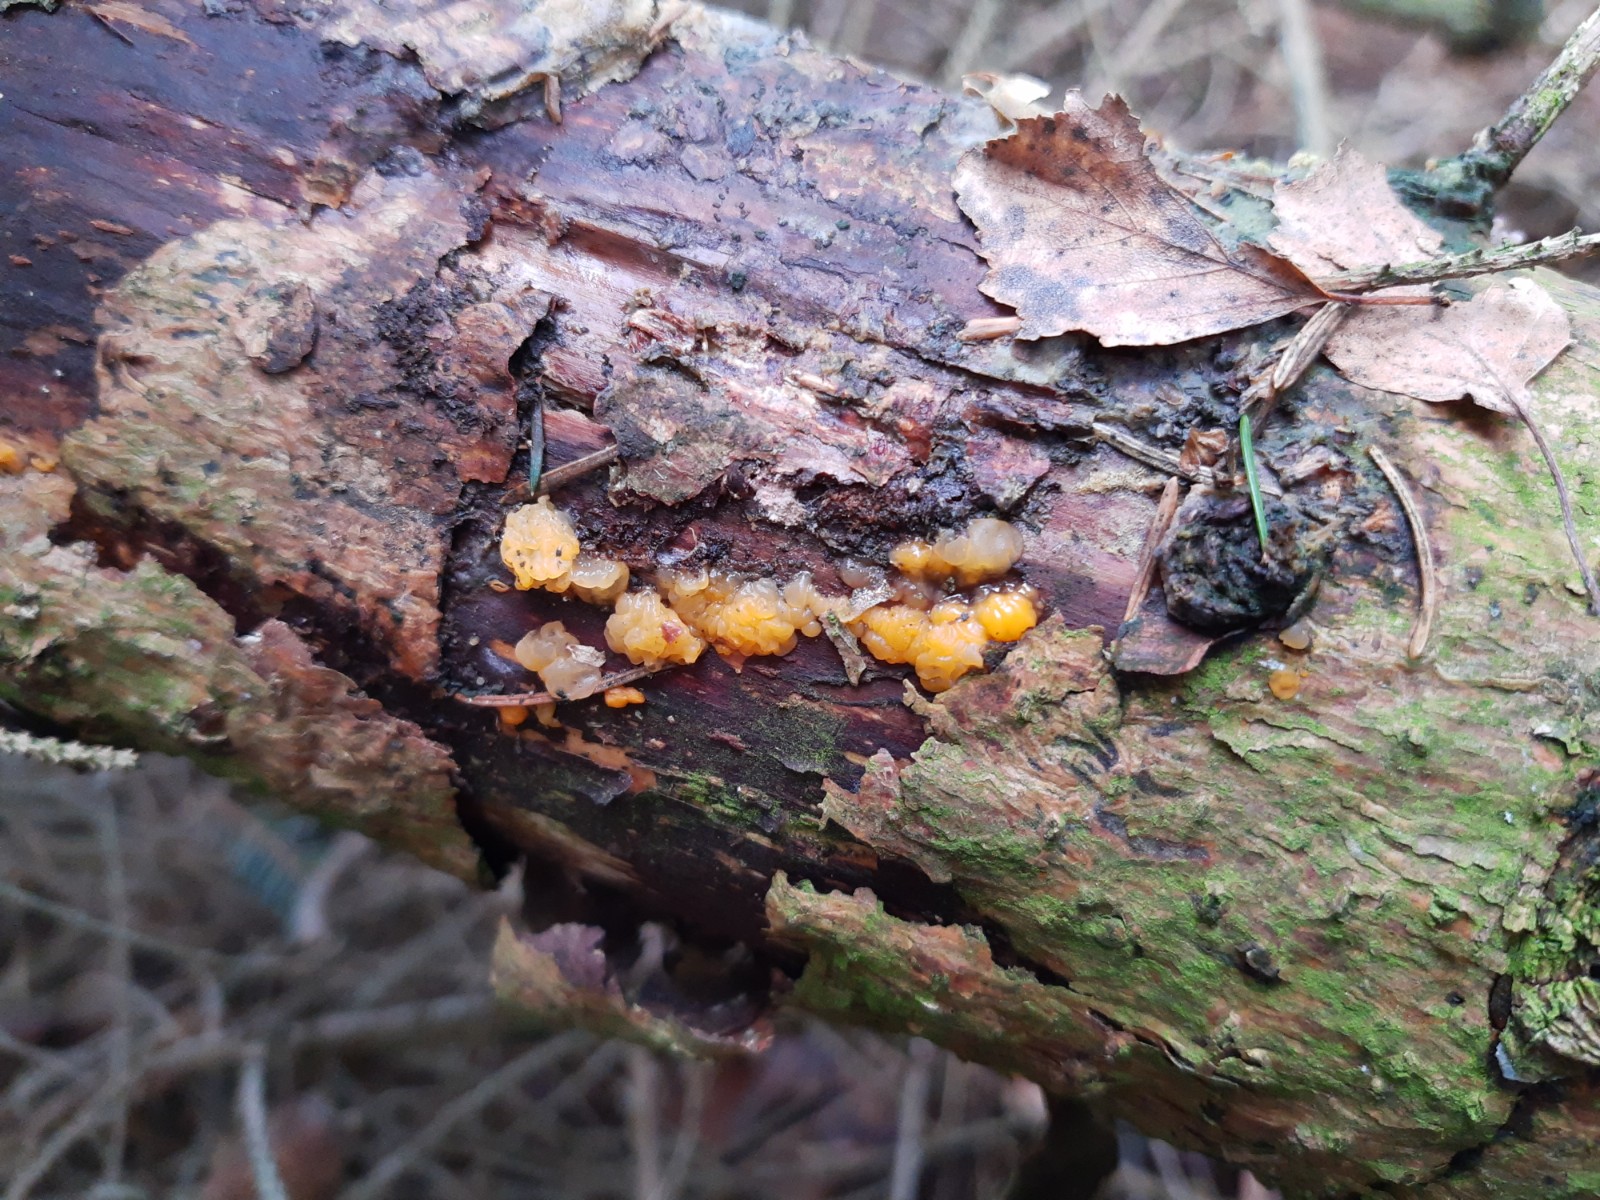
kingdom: Fungi
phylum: Basidiomycota
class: Dacrymycetes
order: Dacrymycetales
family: Dacrymycetaceae
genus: Dacrymyces
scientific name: Dacrymyces stillatus
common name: almindelig tåresvamp
